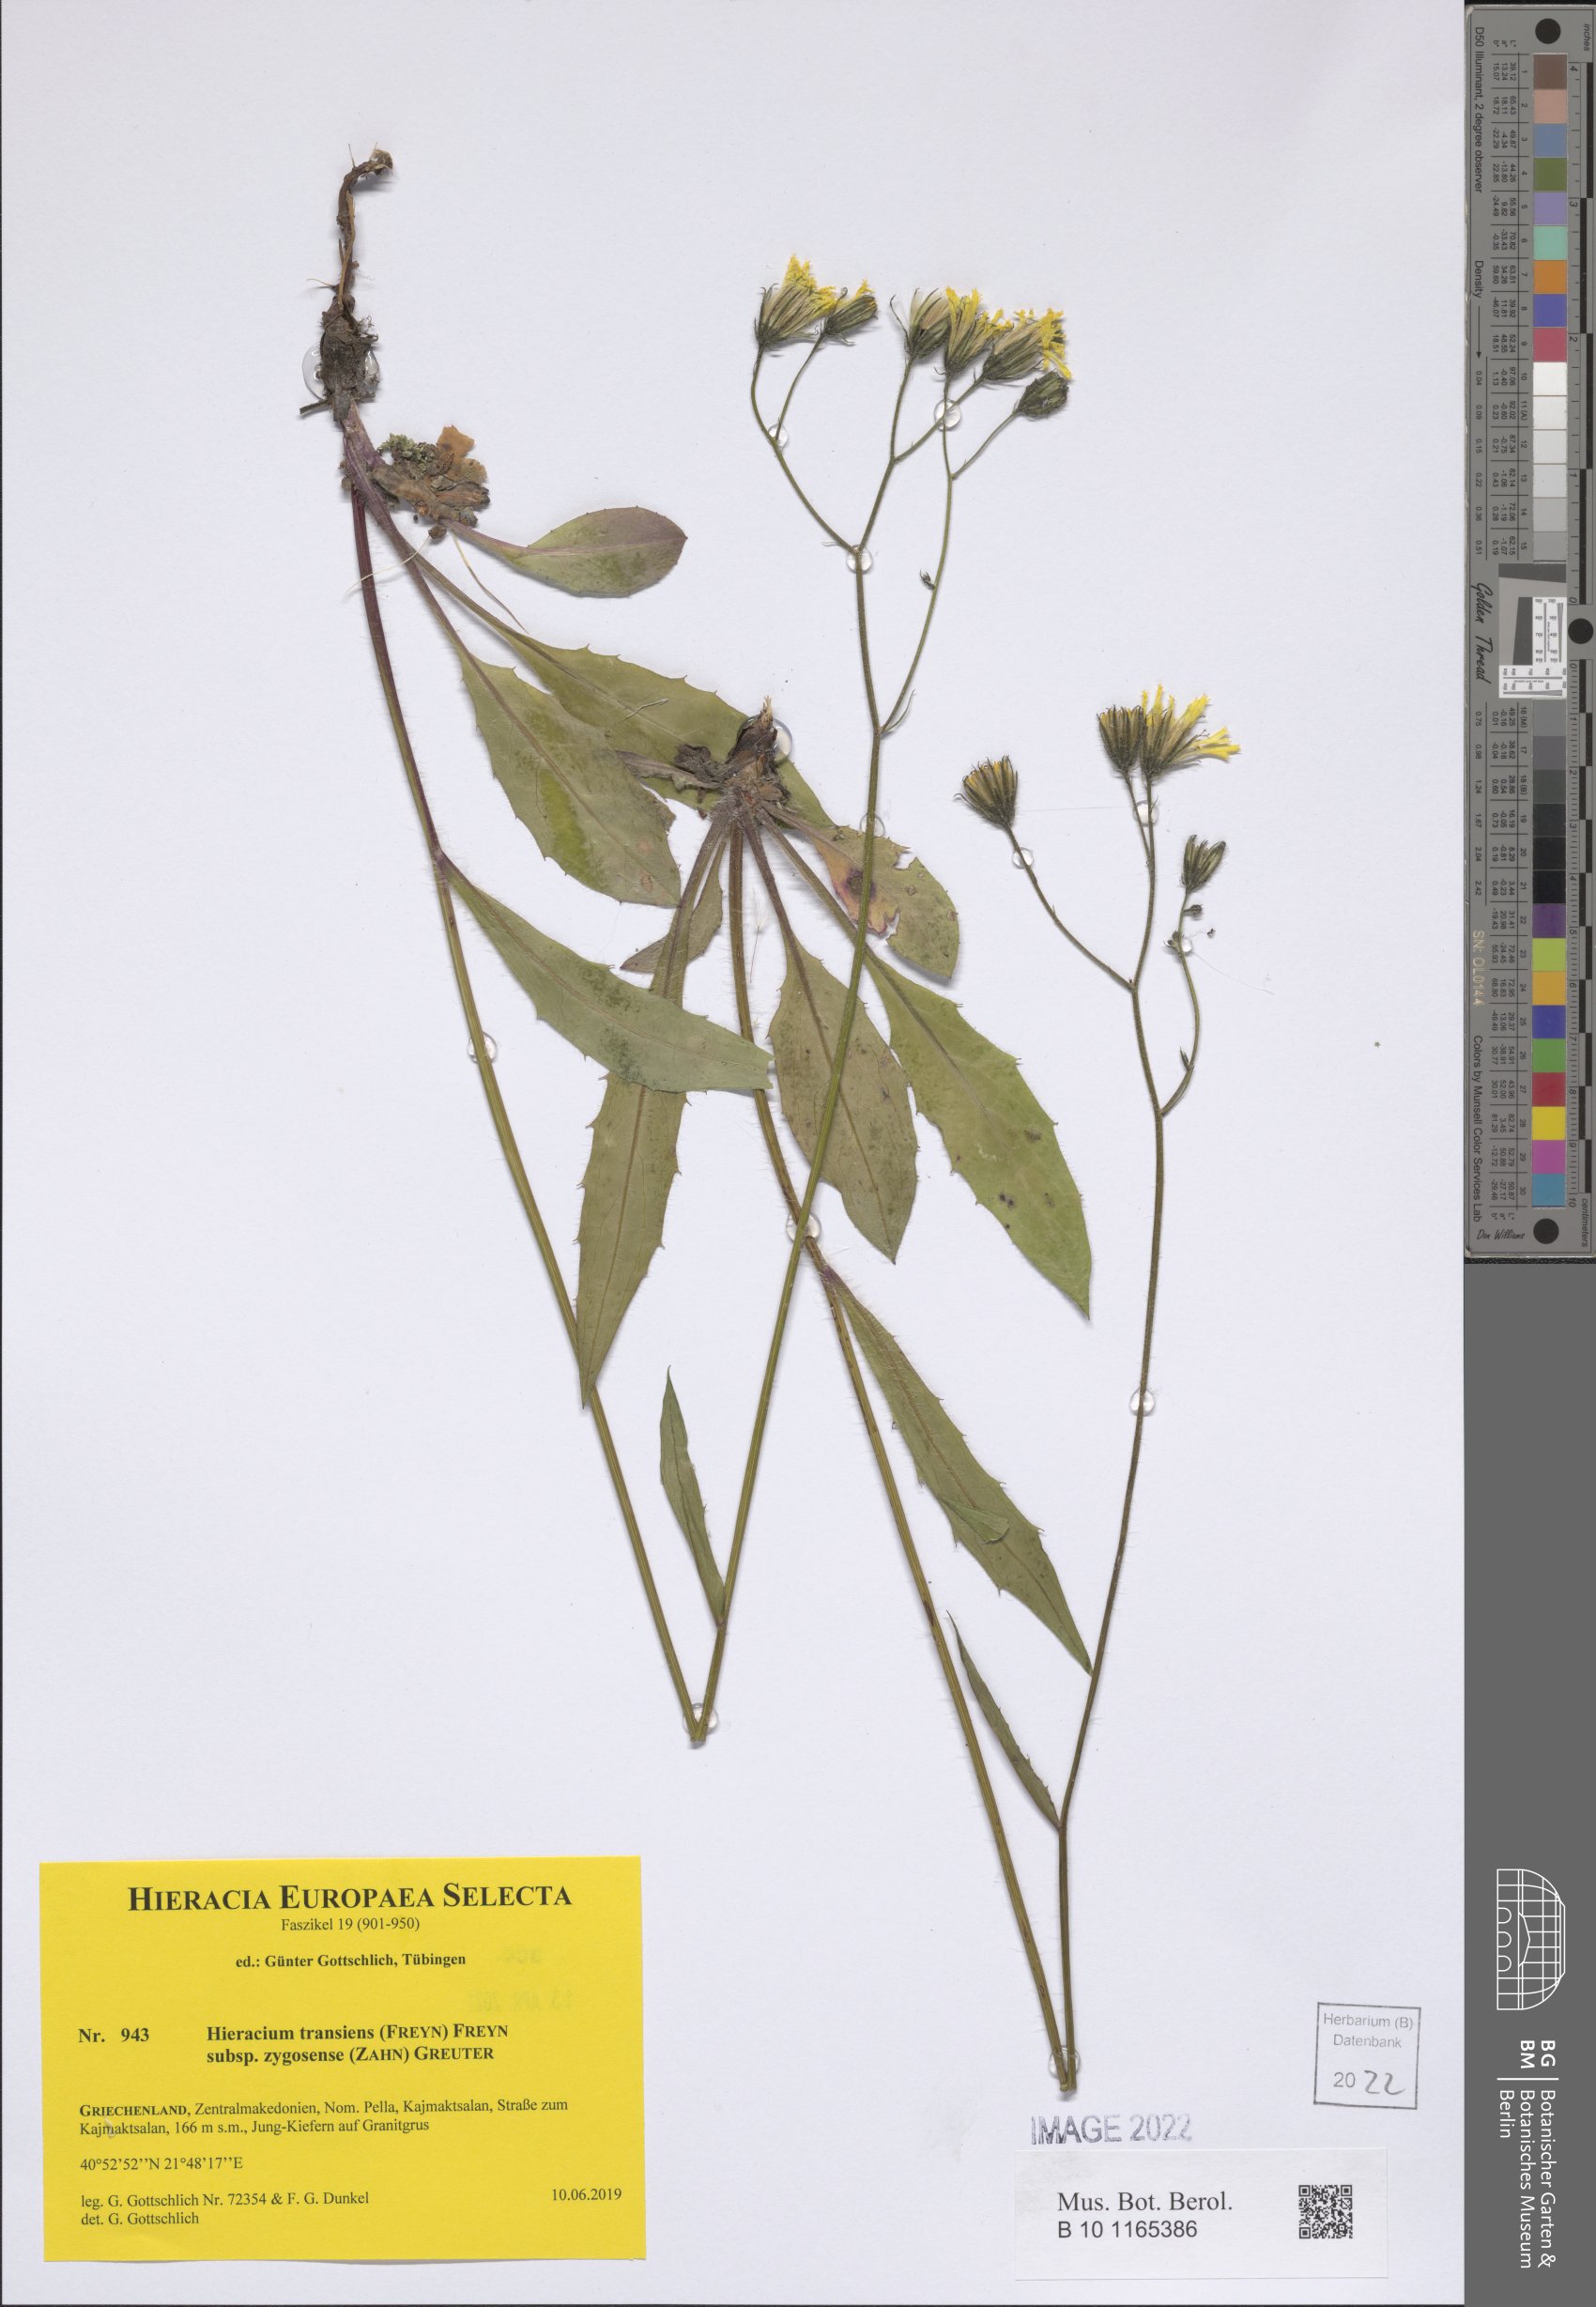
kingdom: Plantae
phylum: Tracheophyta
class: Magnoliopsida
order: Asterales
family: Asteraceae
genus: Hieracium
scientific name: Hieracium transiens
